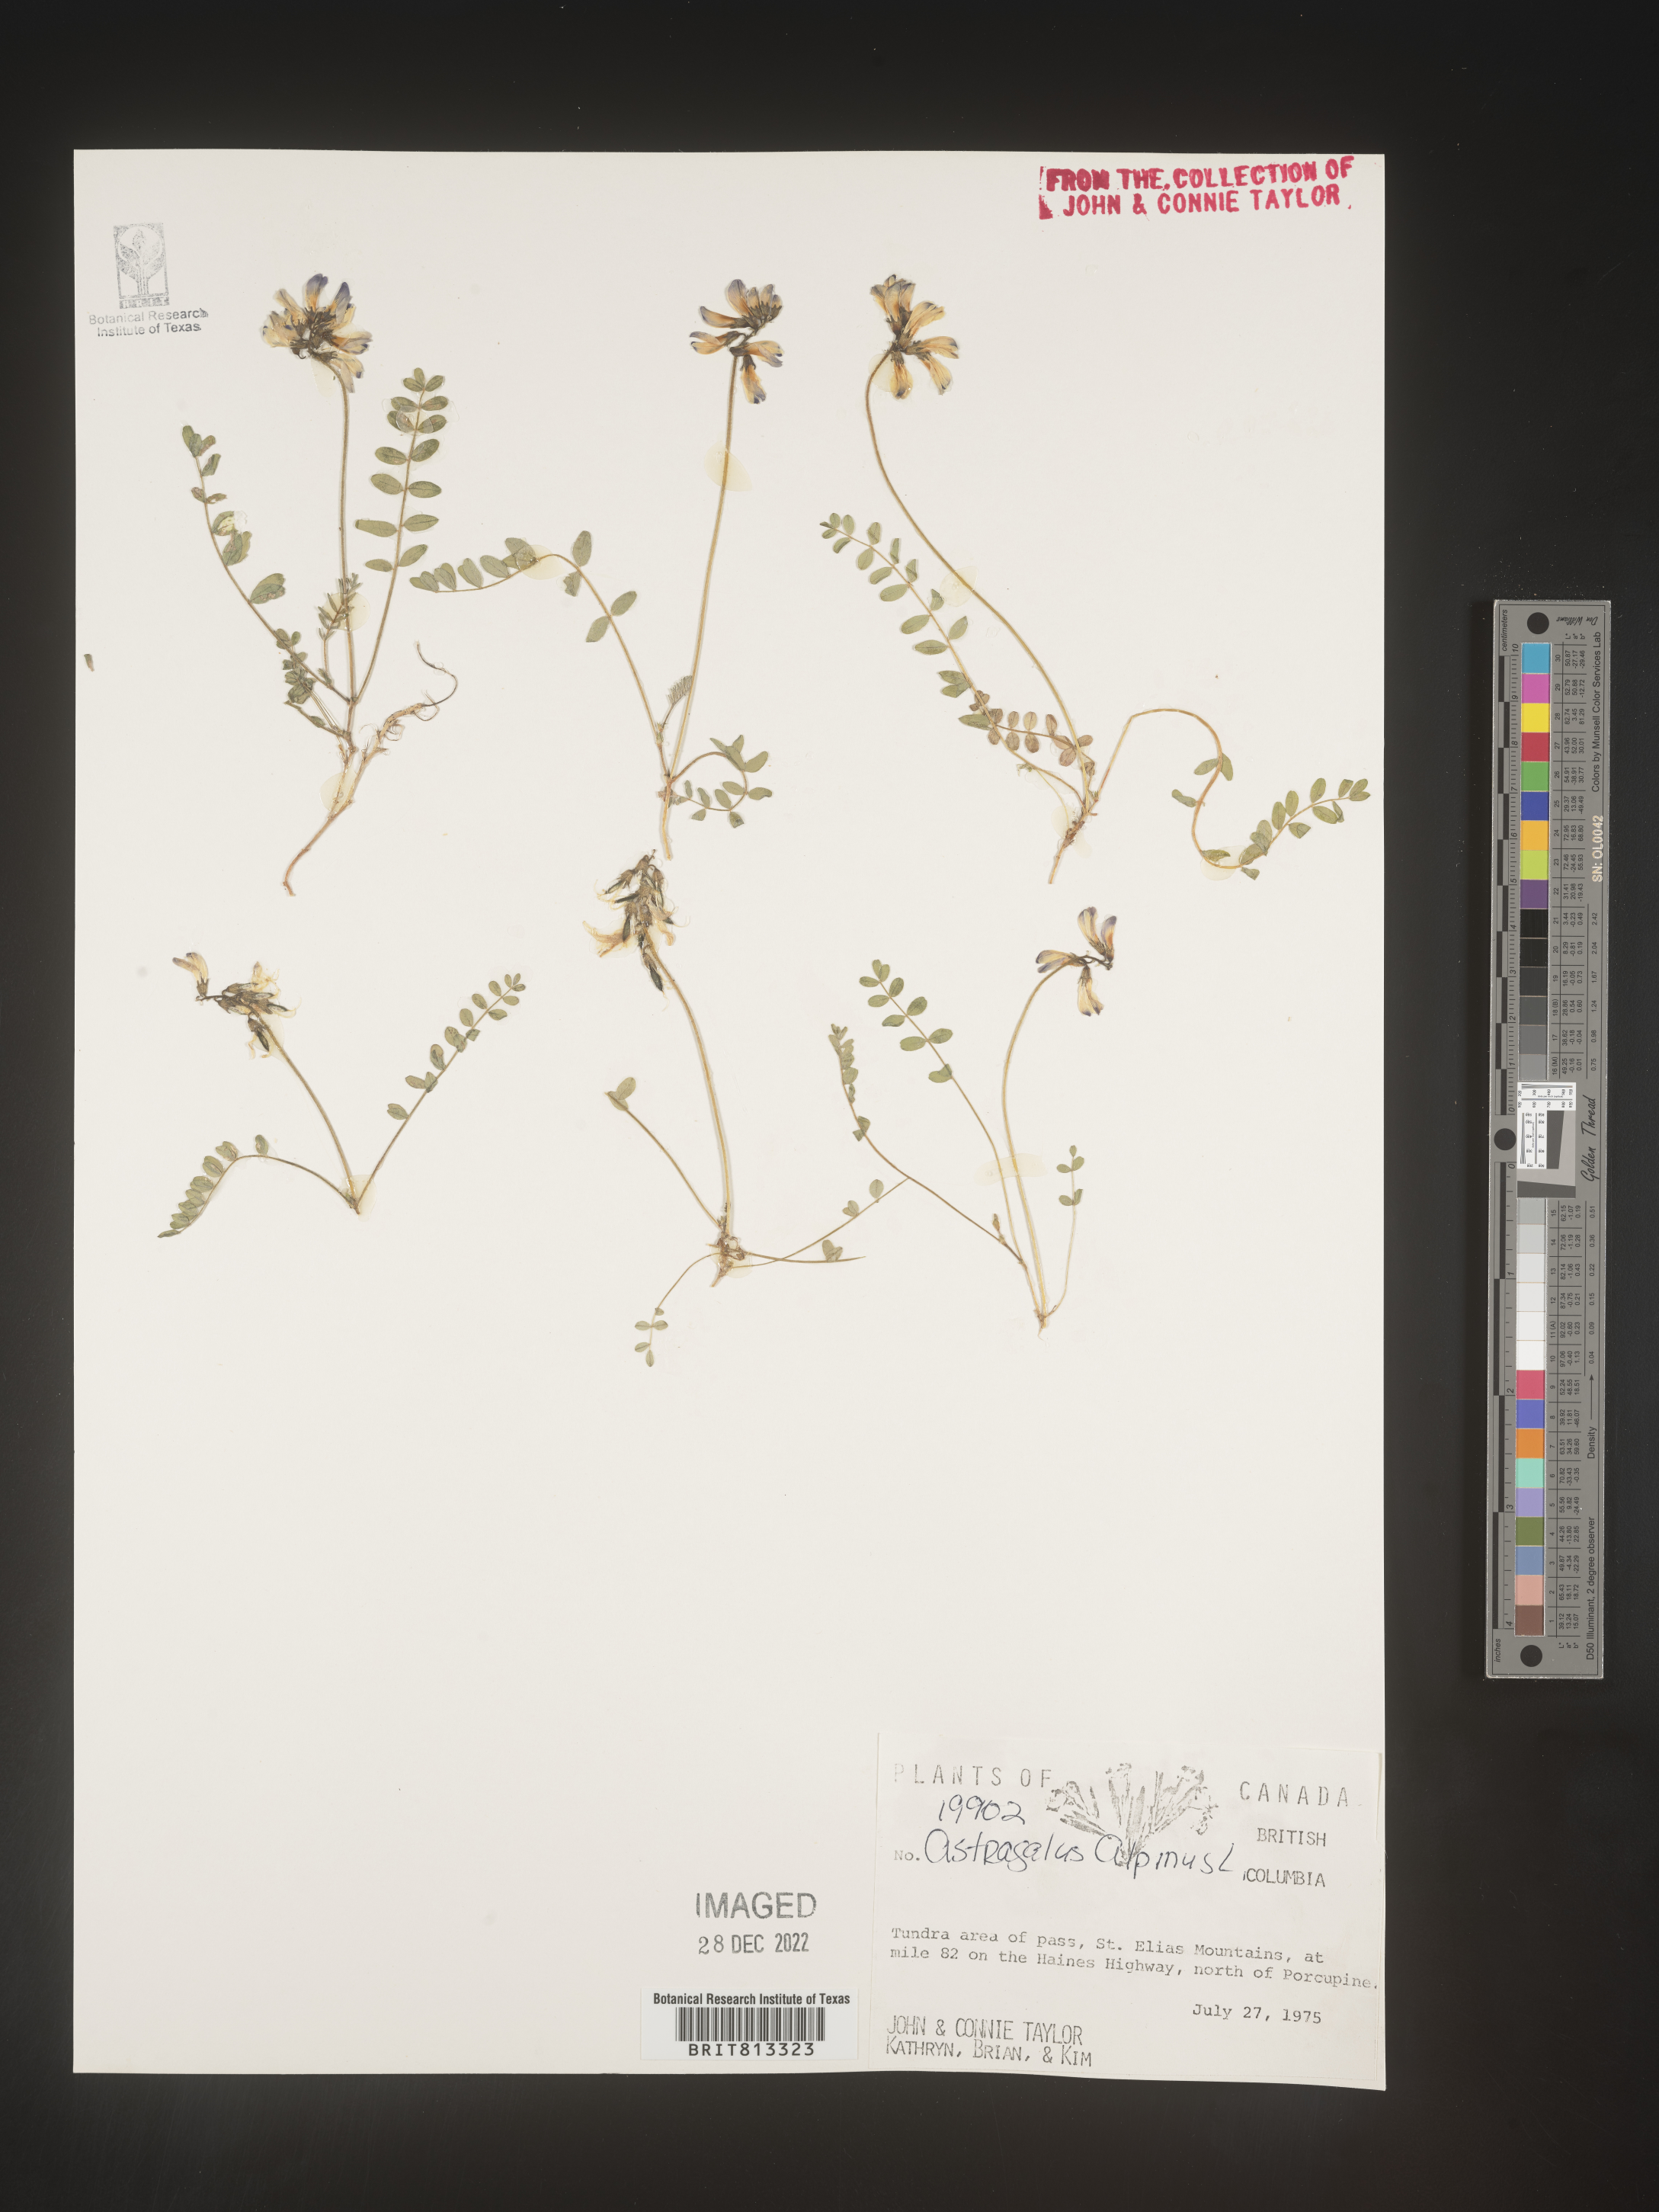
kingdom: Plantae
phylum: Tracheophyta
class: Magnoliopsida
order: Fabales
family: Fabaceae
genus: Astragalus
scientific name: Astragalus alpinus
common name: Alpine milk-vetch
